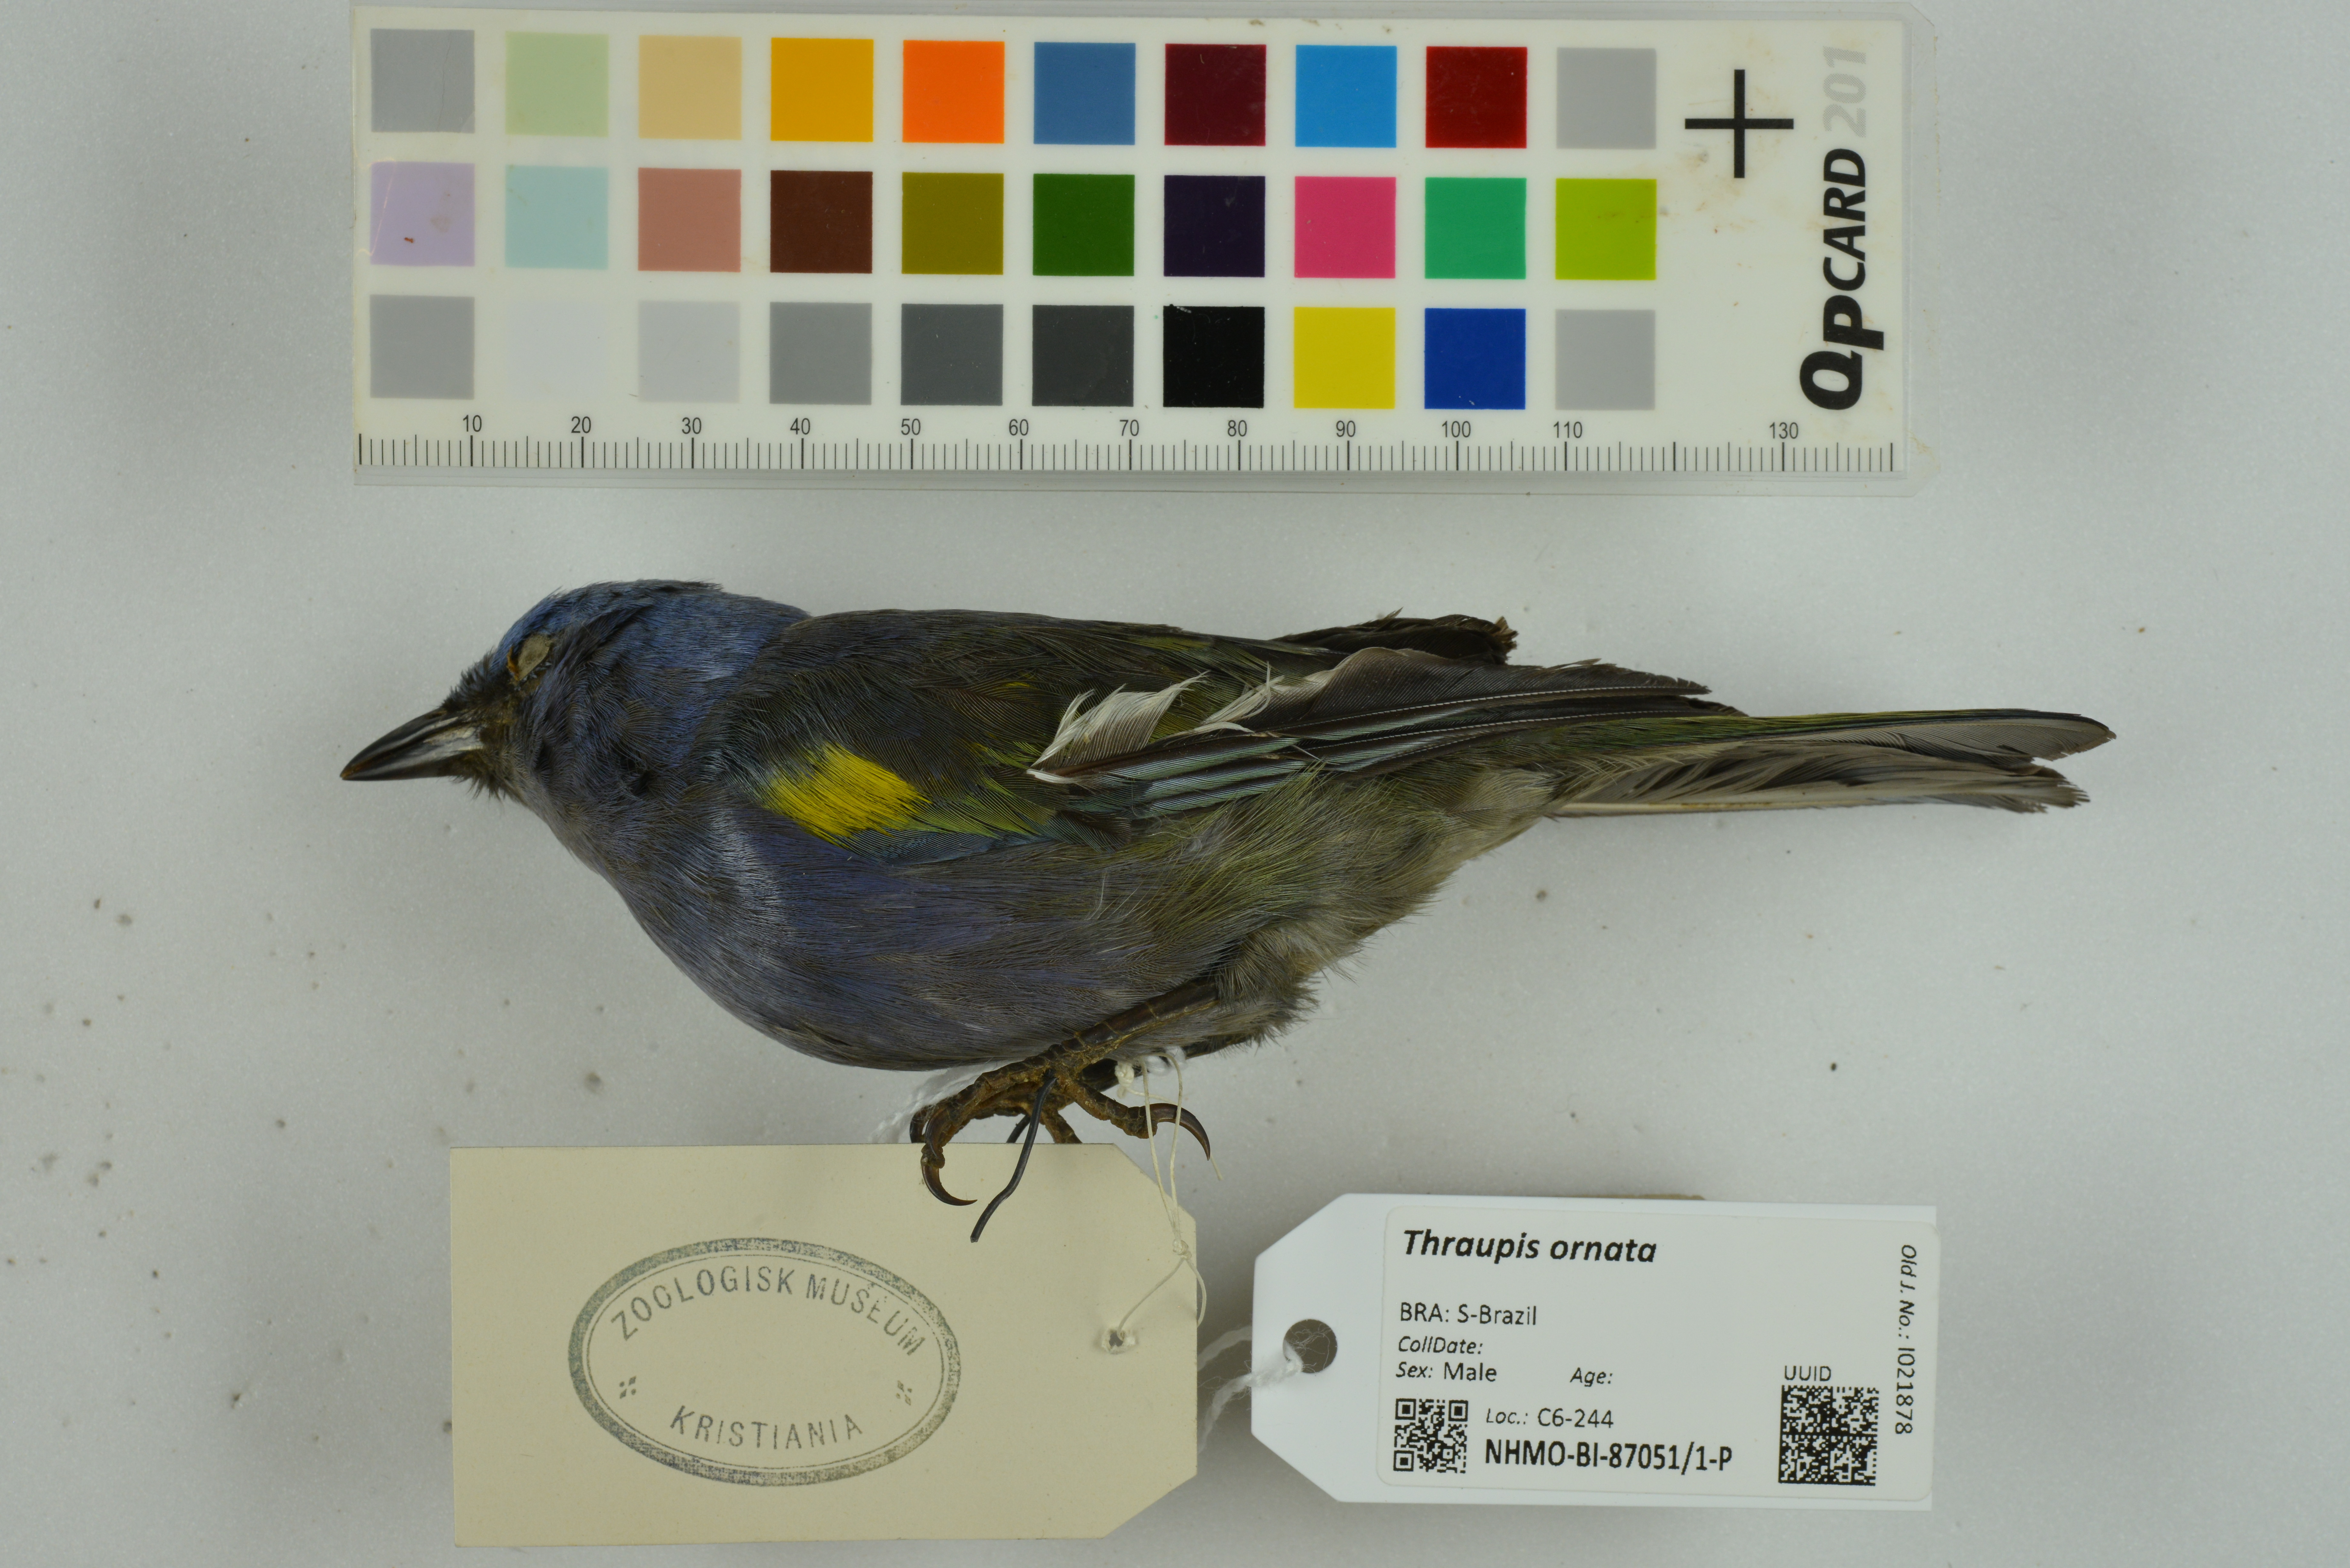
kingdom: Animalia
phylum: Chordata
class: Aves
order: Passeriformes
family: Thraupidae
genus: Thraupis
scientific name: Thraupis ornata
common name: Golden-chevroned tanager
